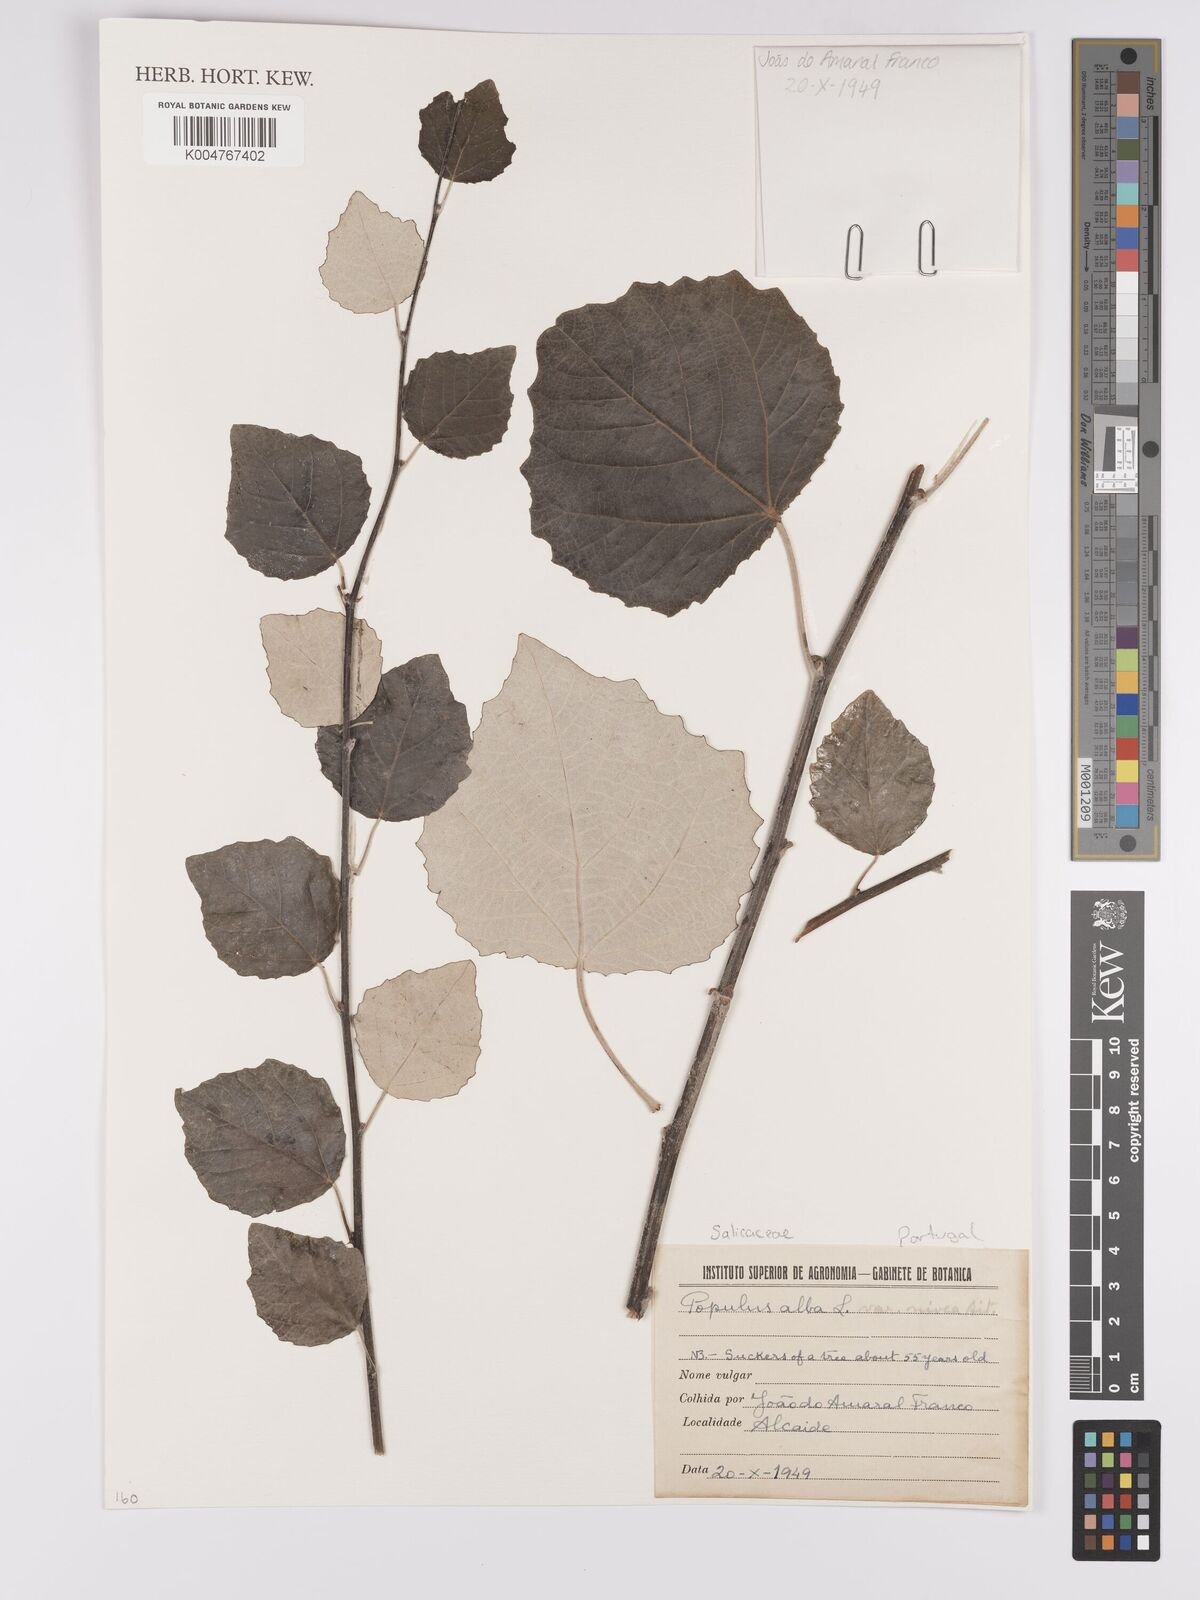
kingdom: Plantae
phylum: Tracheophyta
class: Magnoliopsida
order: Malpighiales
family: Salicaceae
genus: Populus
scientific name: Populus alba
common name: White poplar
